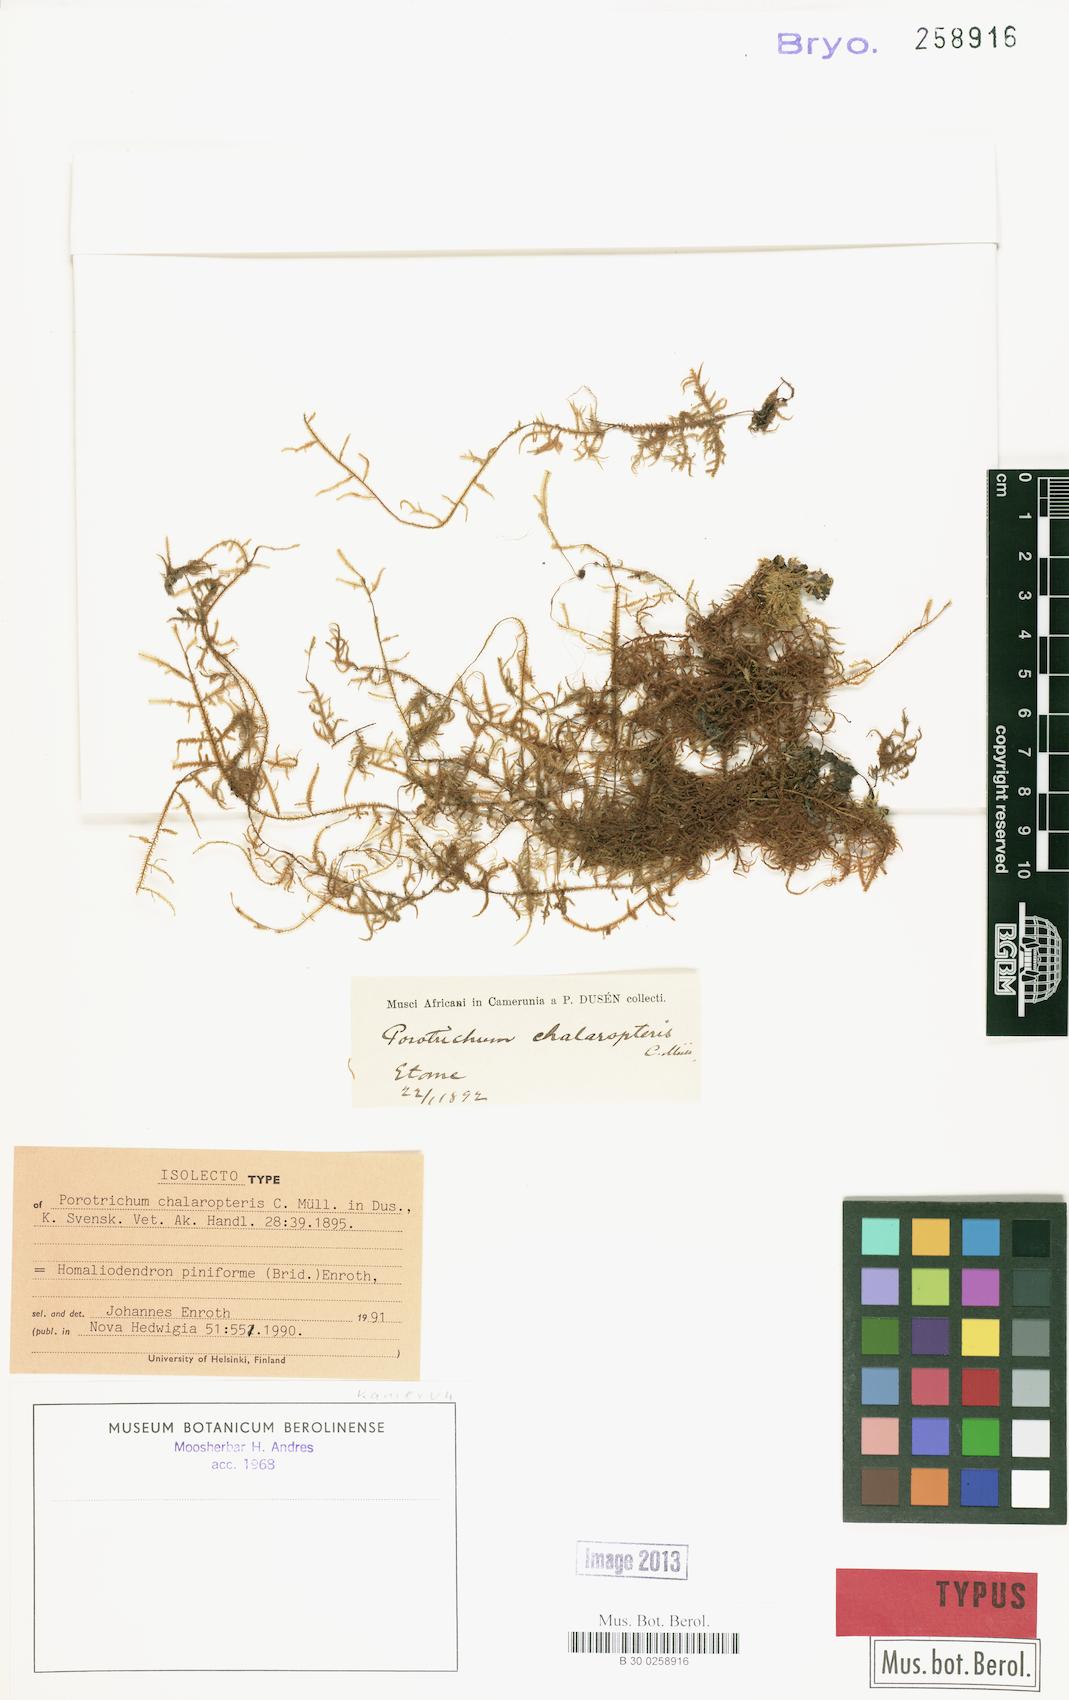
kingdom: Plantae
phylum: Bryophyta
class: Bryopsida
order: Hypnales
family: Orthostichellaceae
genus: Pinnatidendron
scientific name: Pinnatidendron piniforme
